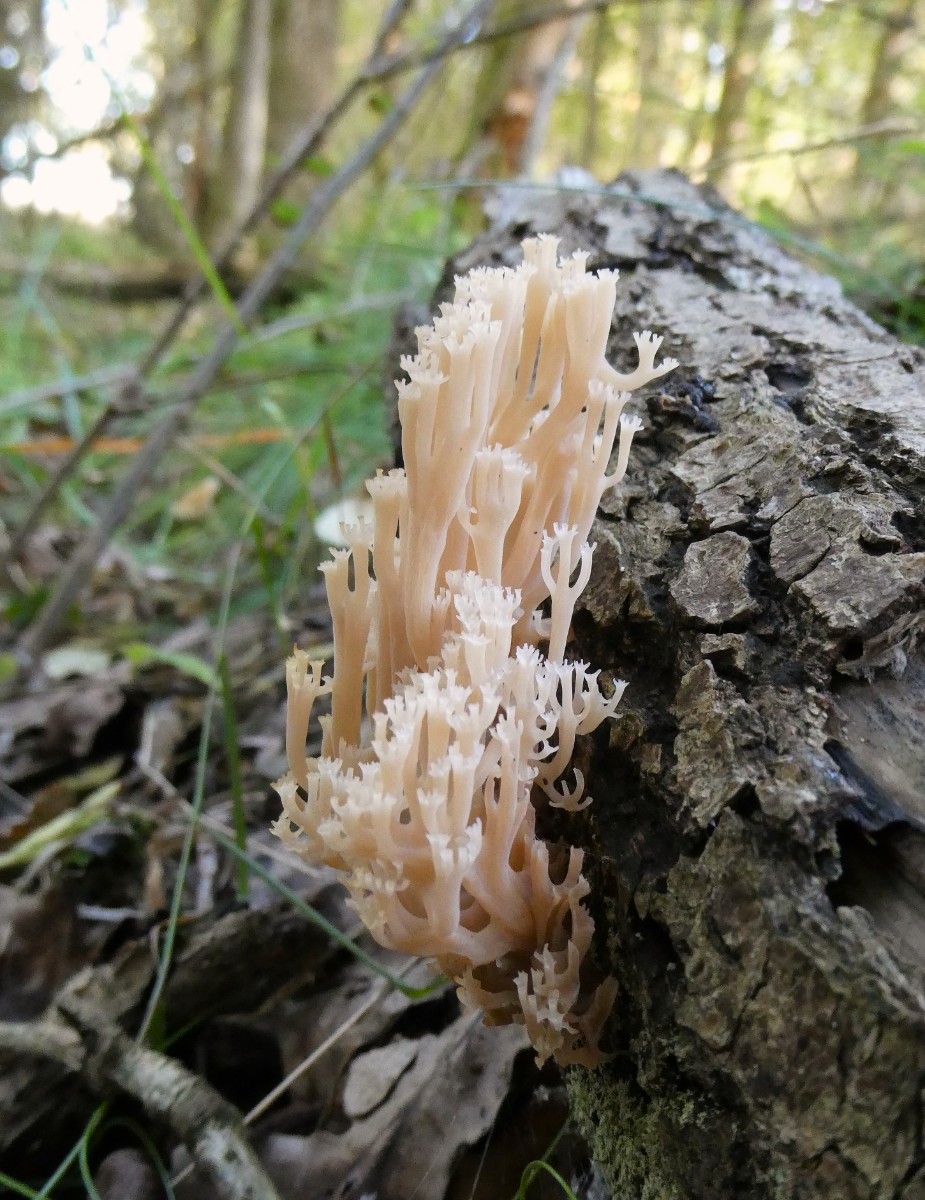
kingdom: Fungi
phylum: Basidiomycota
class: Agaricomycetes
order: Russulales
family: Auriscalpiaceae
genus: Artomyces
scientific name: Artomyces pyxidatus
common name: kandelabersvamp
